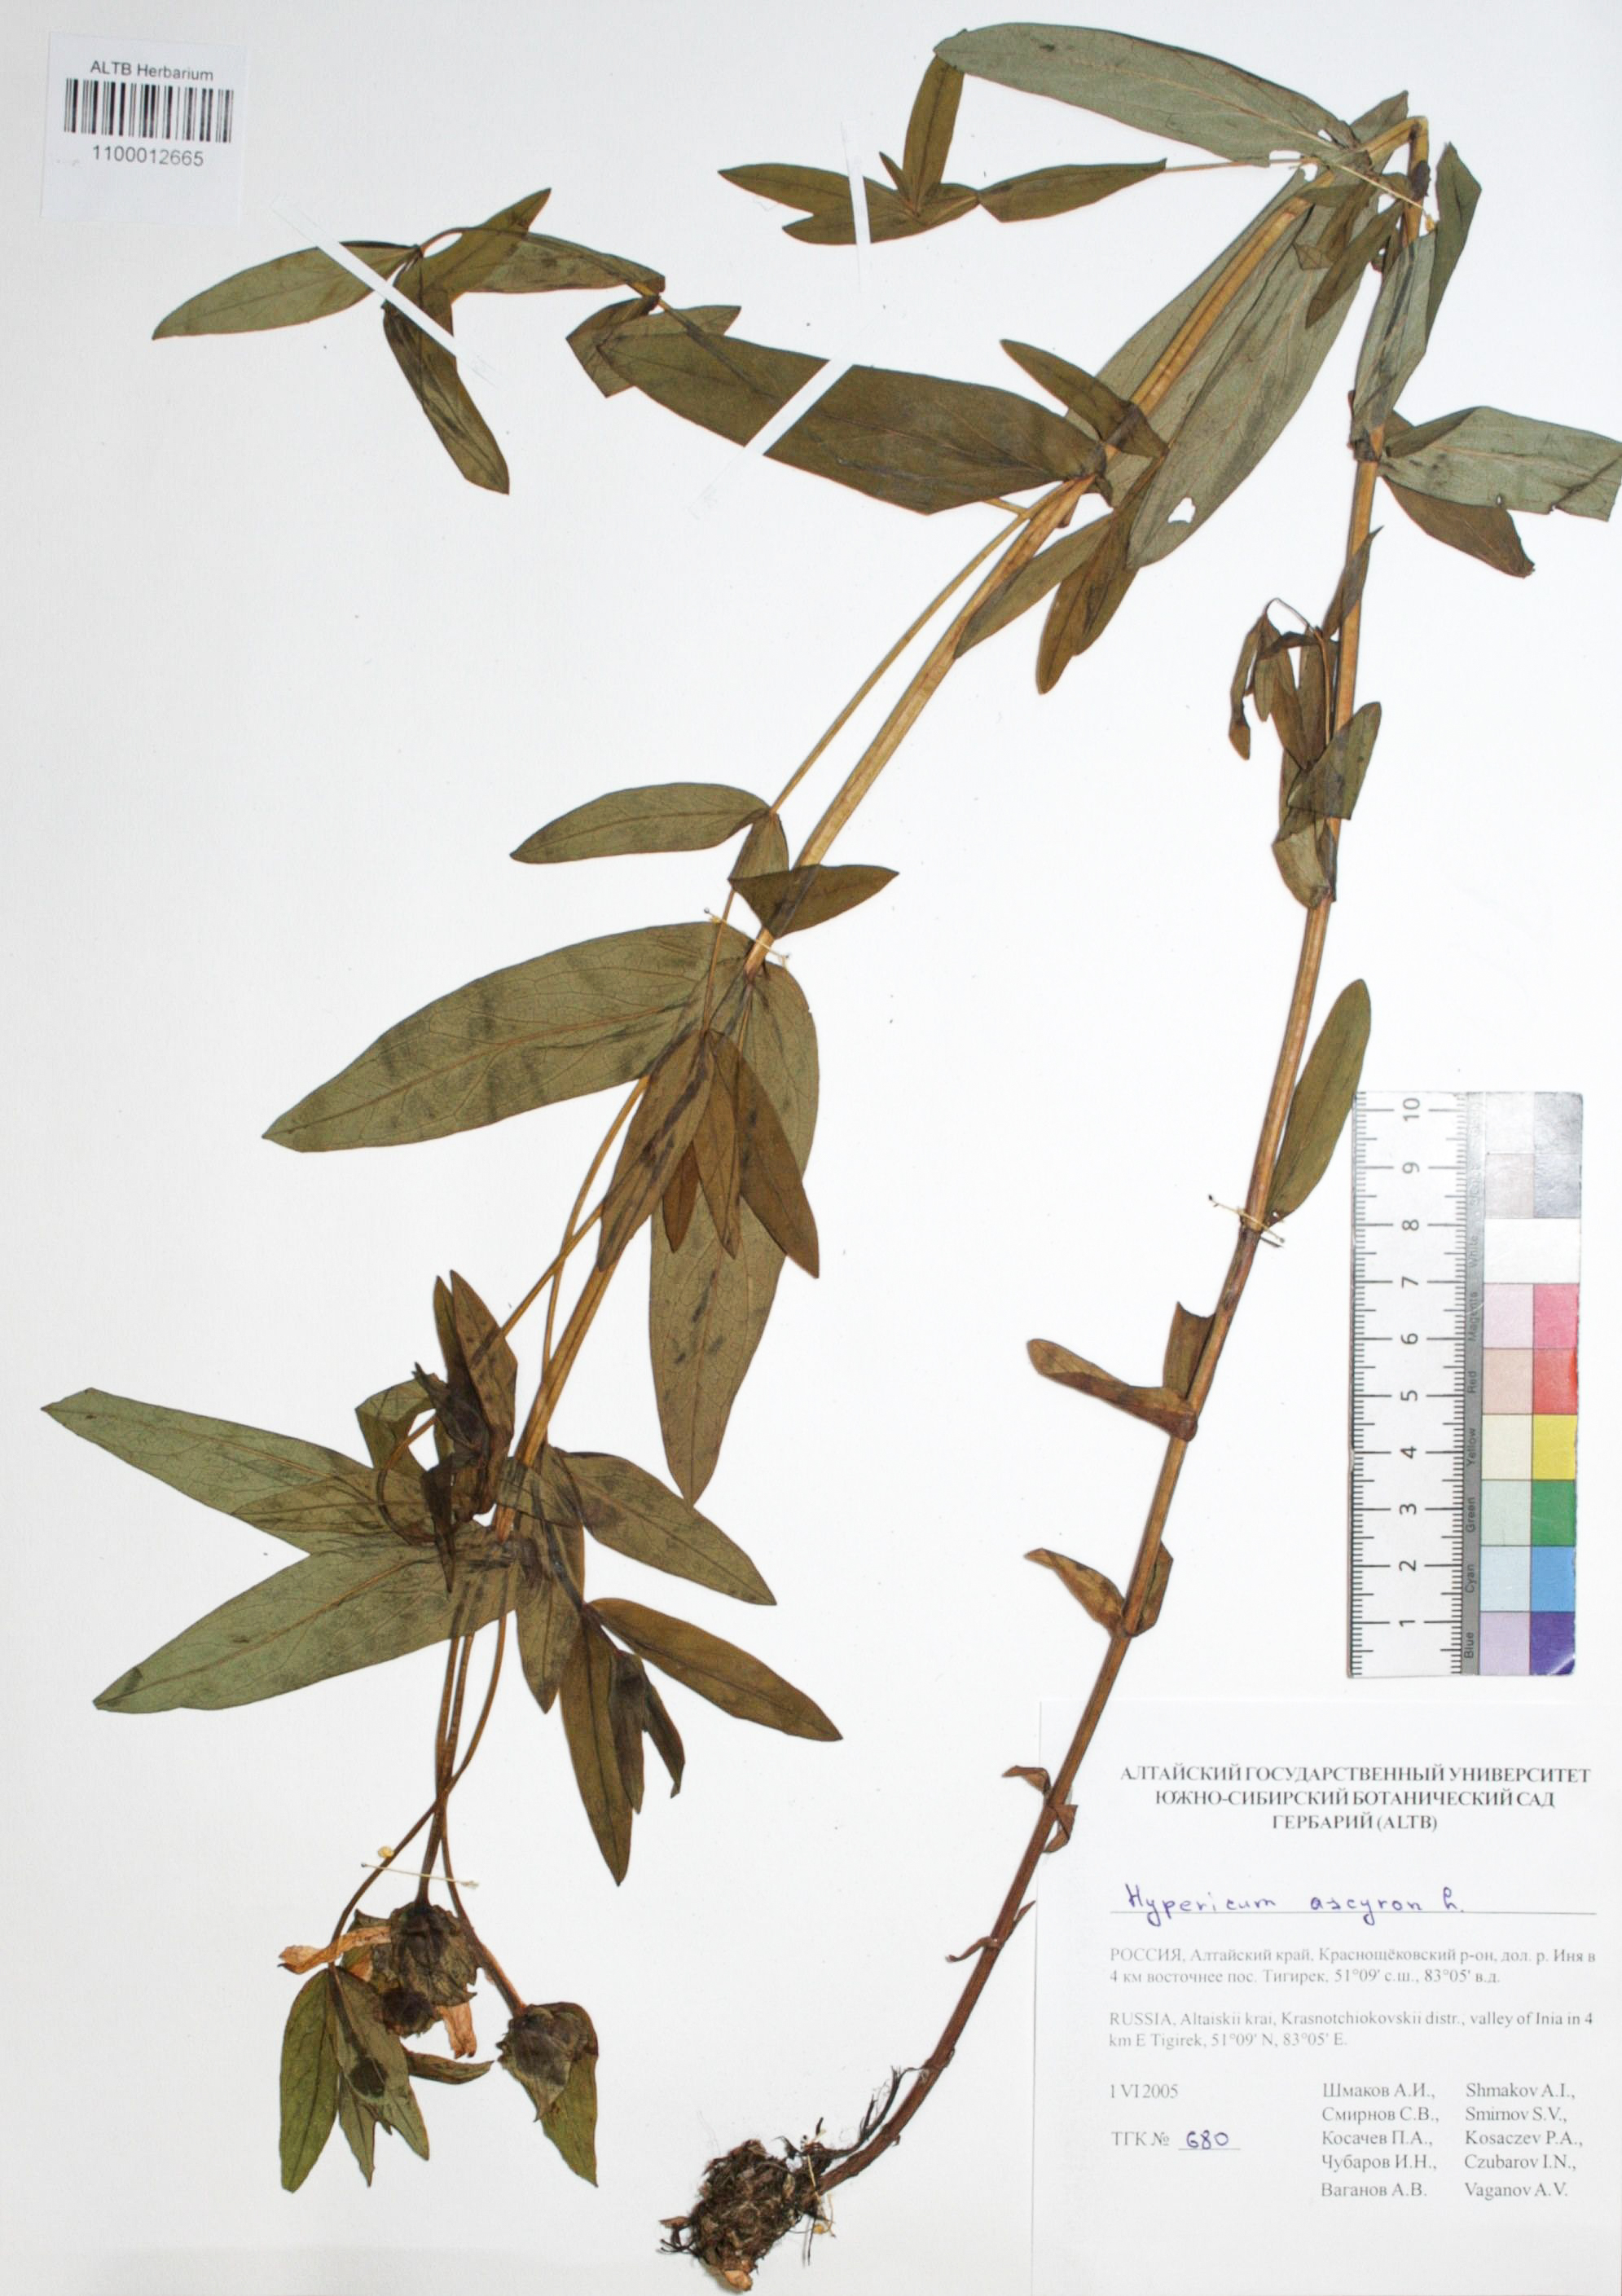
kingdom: Plantae
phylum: Tracheophyta
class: Magnoliopsida
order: Malpighiales
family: Hypericaceae
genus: Hypericum
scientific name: Hypericum ascyron
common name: Giant st. john's-wort
